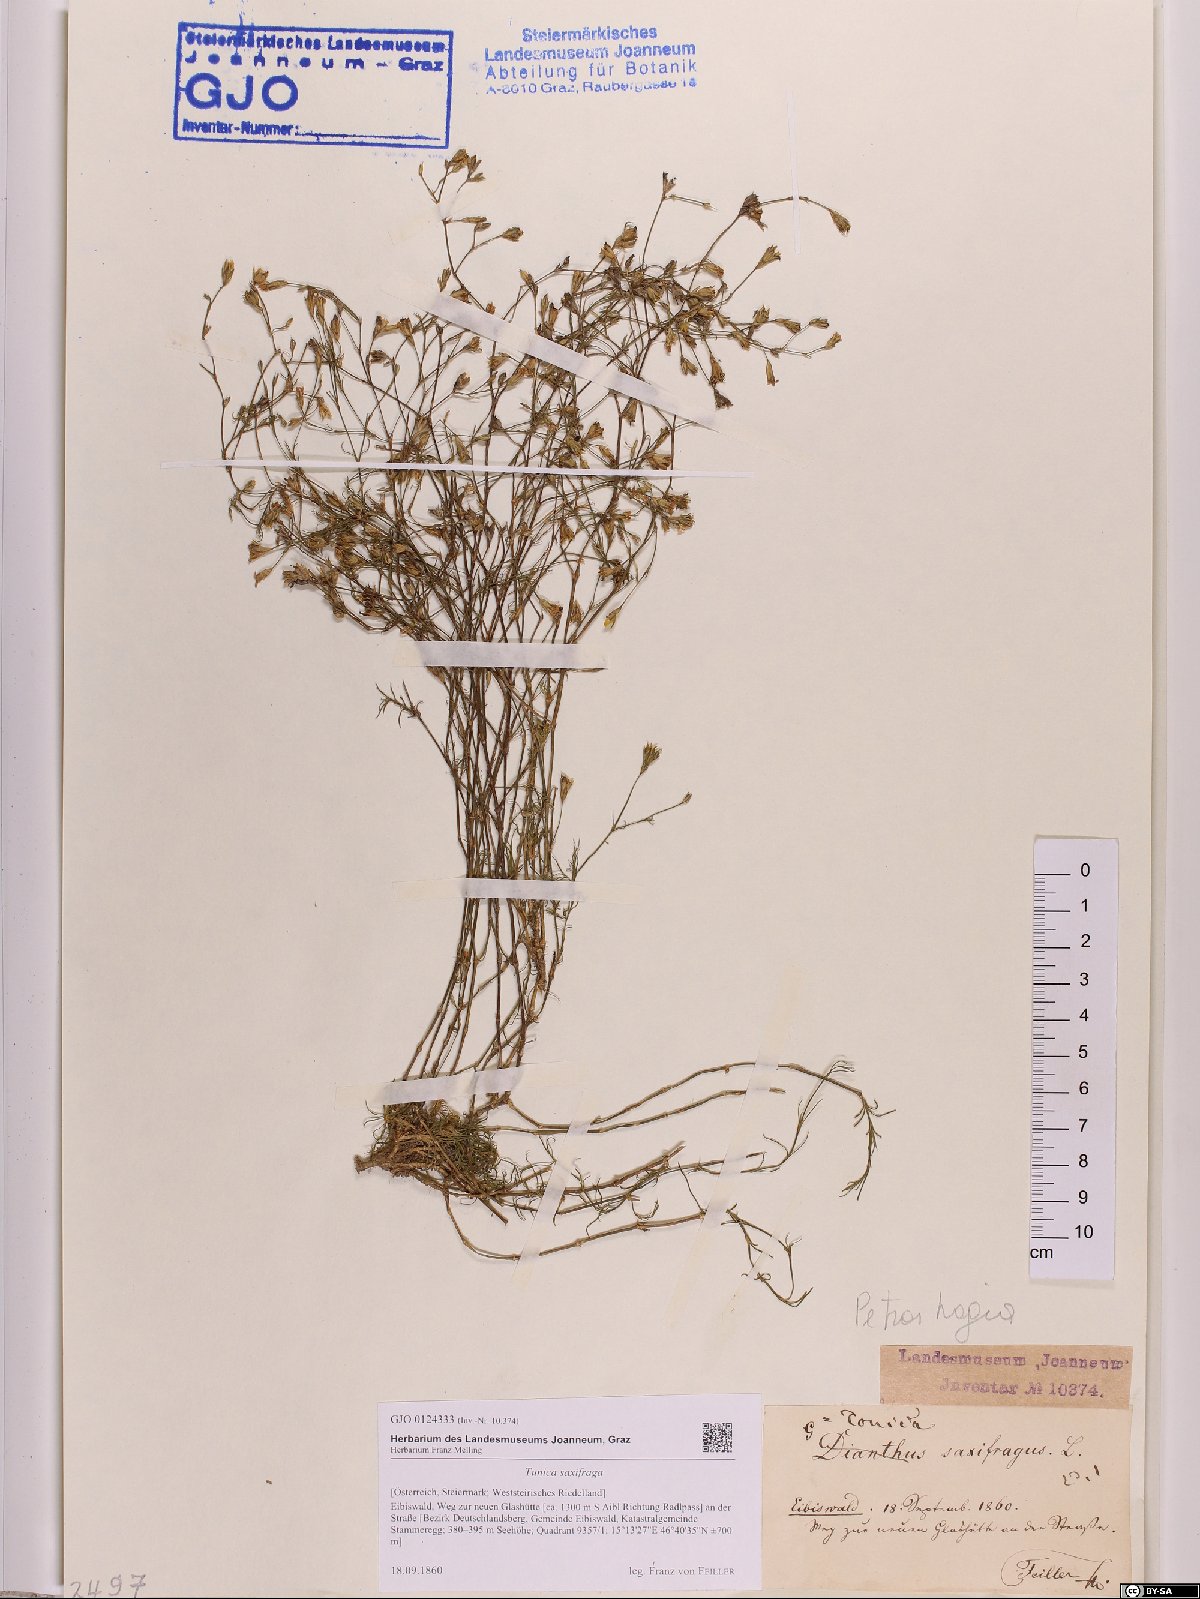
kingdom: Plantae
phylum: Tracheophyta
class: Magnoliopsida
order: Caryophyllales
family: Caryophyllaceae
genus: Petrorhagia
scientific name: Petrorhagia saxifraga
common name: Tunicflower
